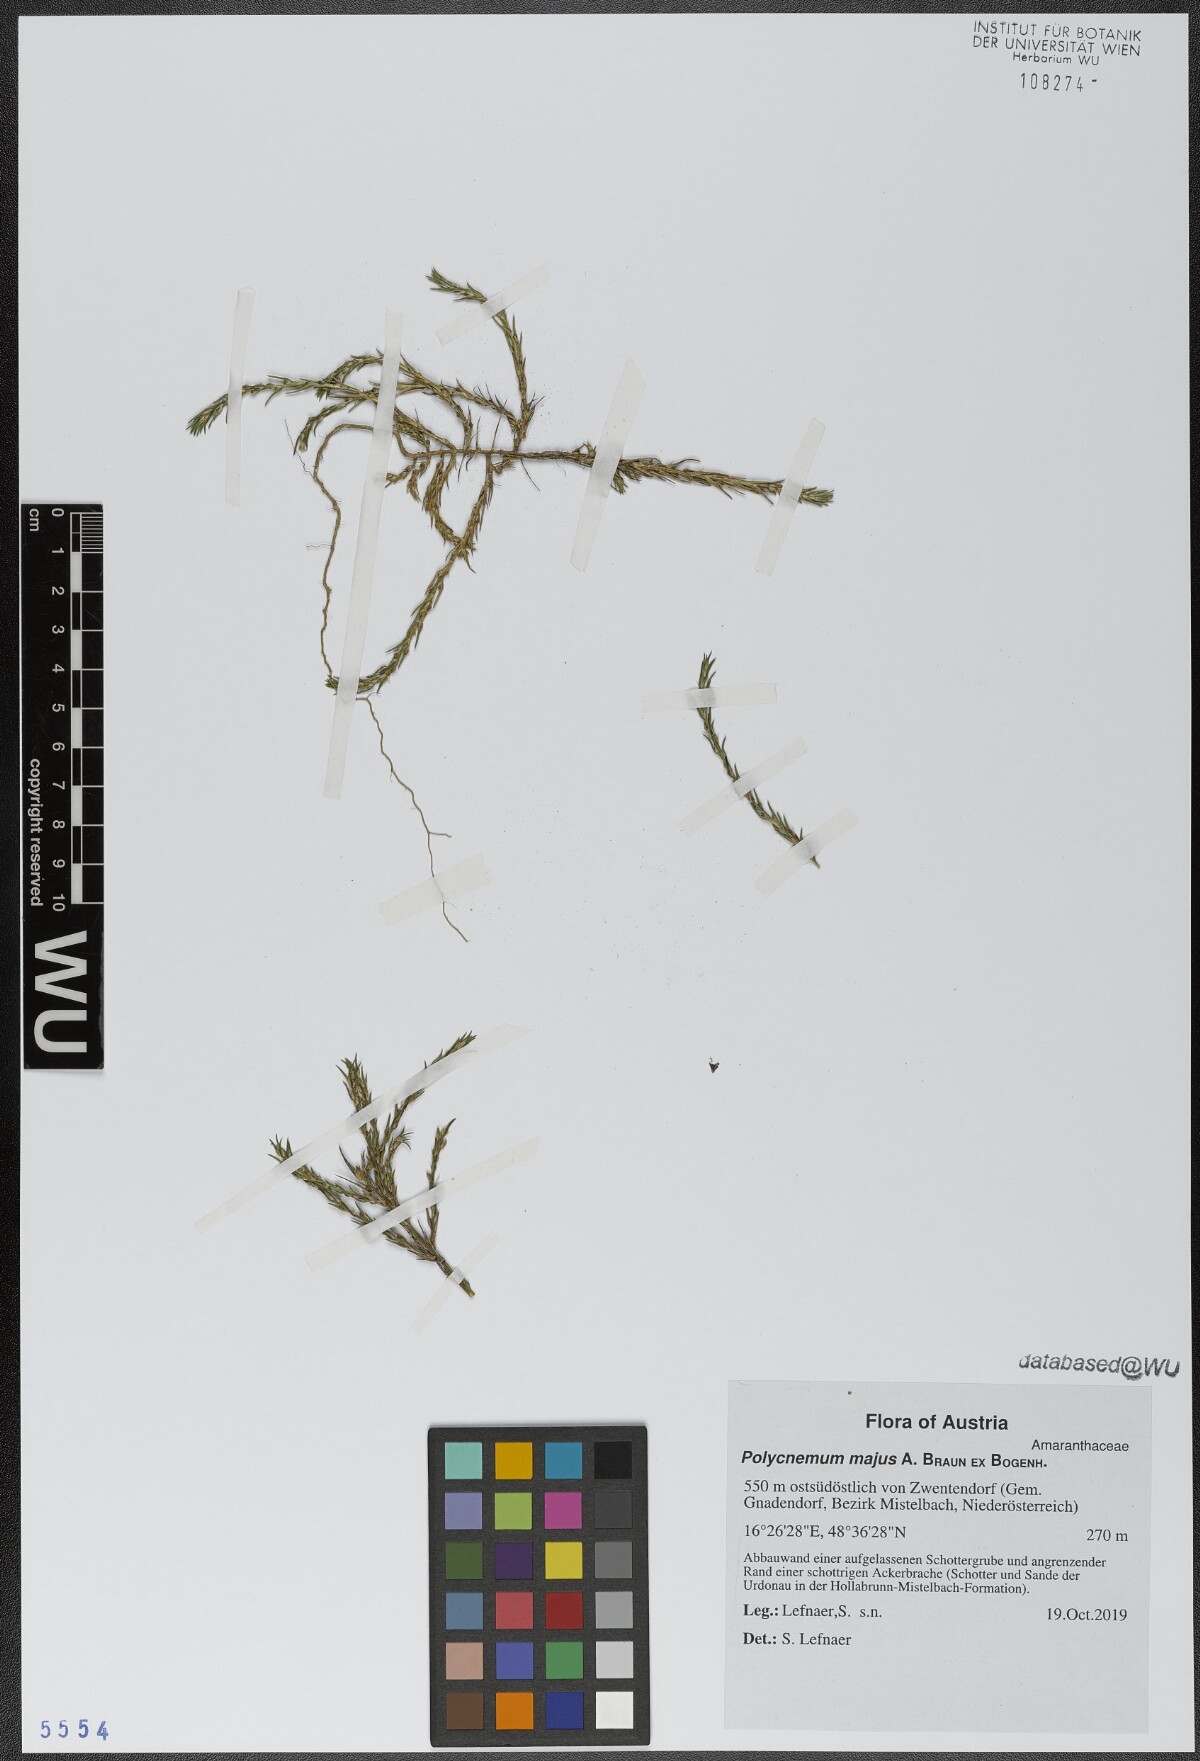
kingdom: Plantae
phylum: Tracheophyta
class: Magnoliopsida
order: Caryophyllales
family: Amaranthaceae
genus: Polycnemum
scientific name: Polycnemum majus
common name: Giant needleleaf
